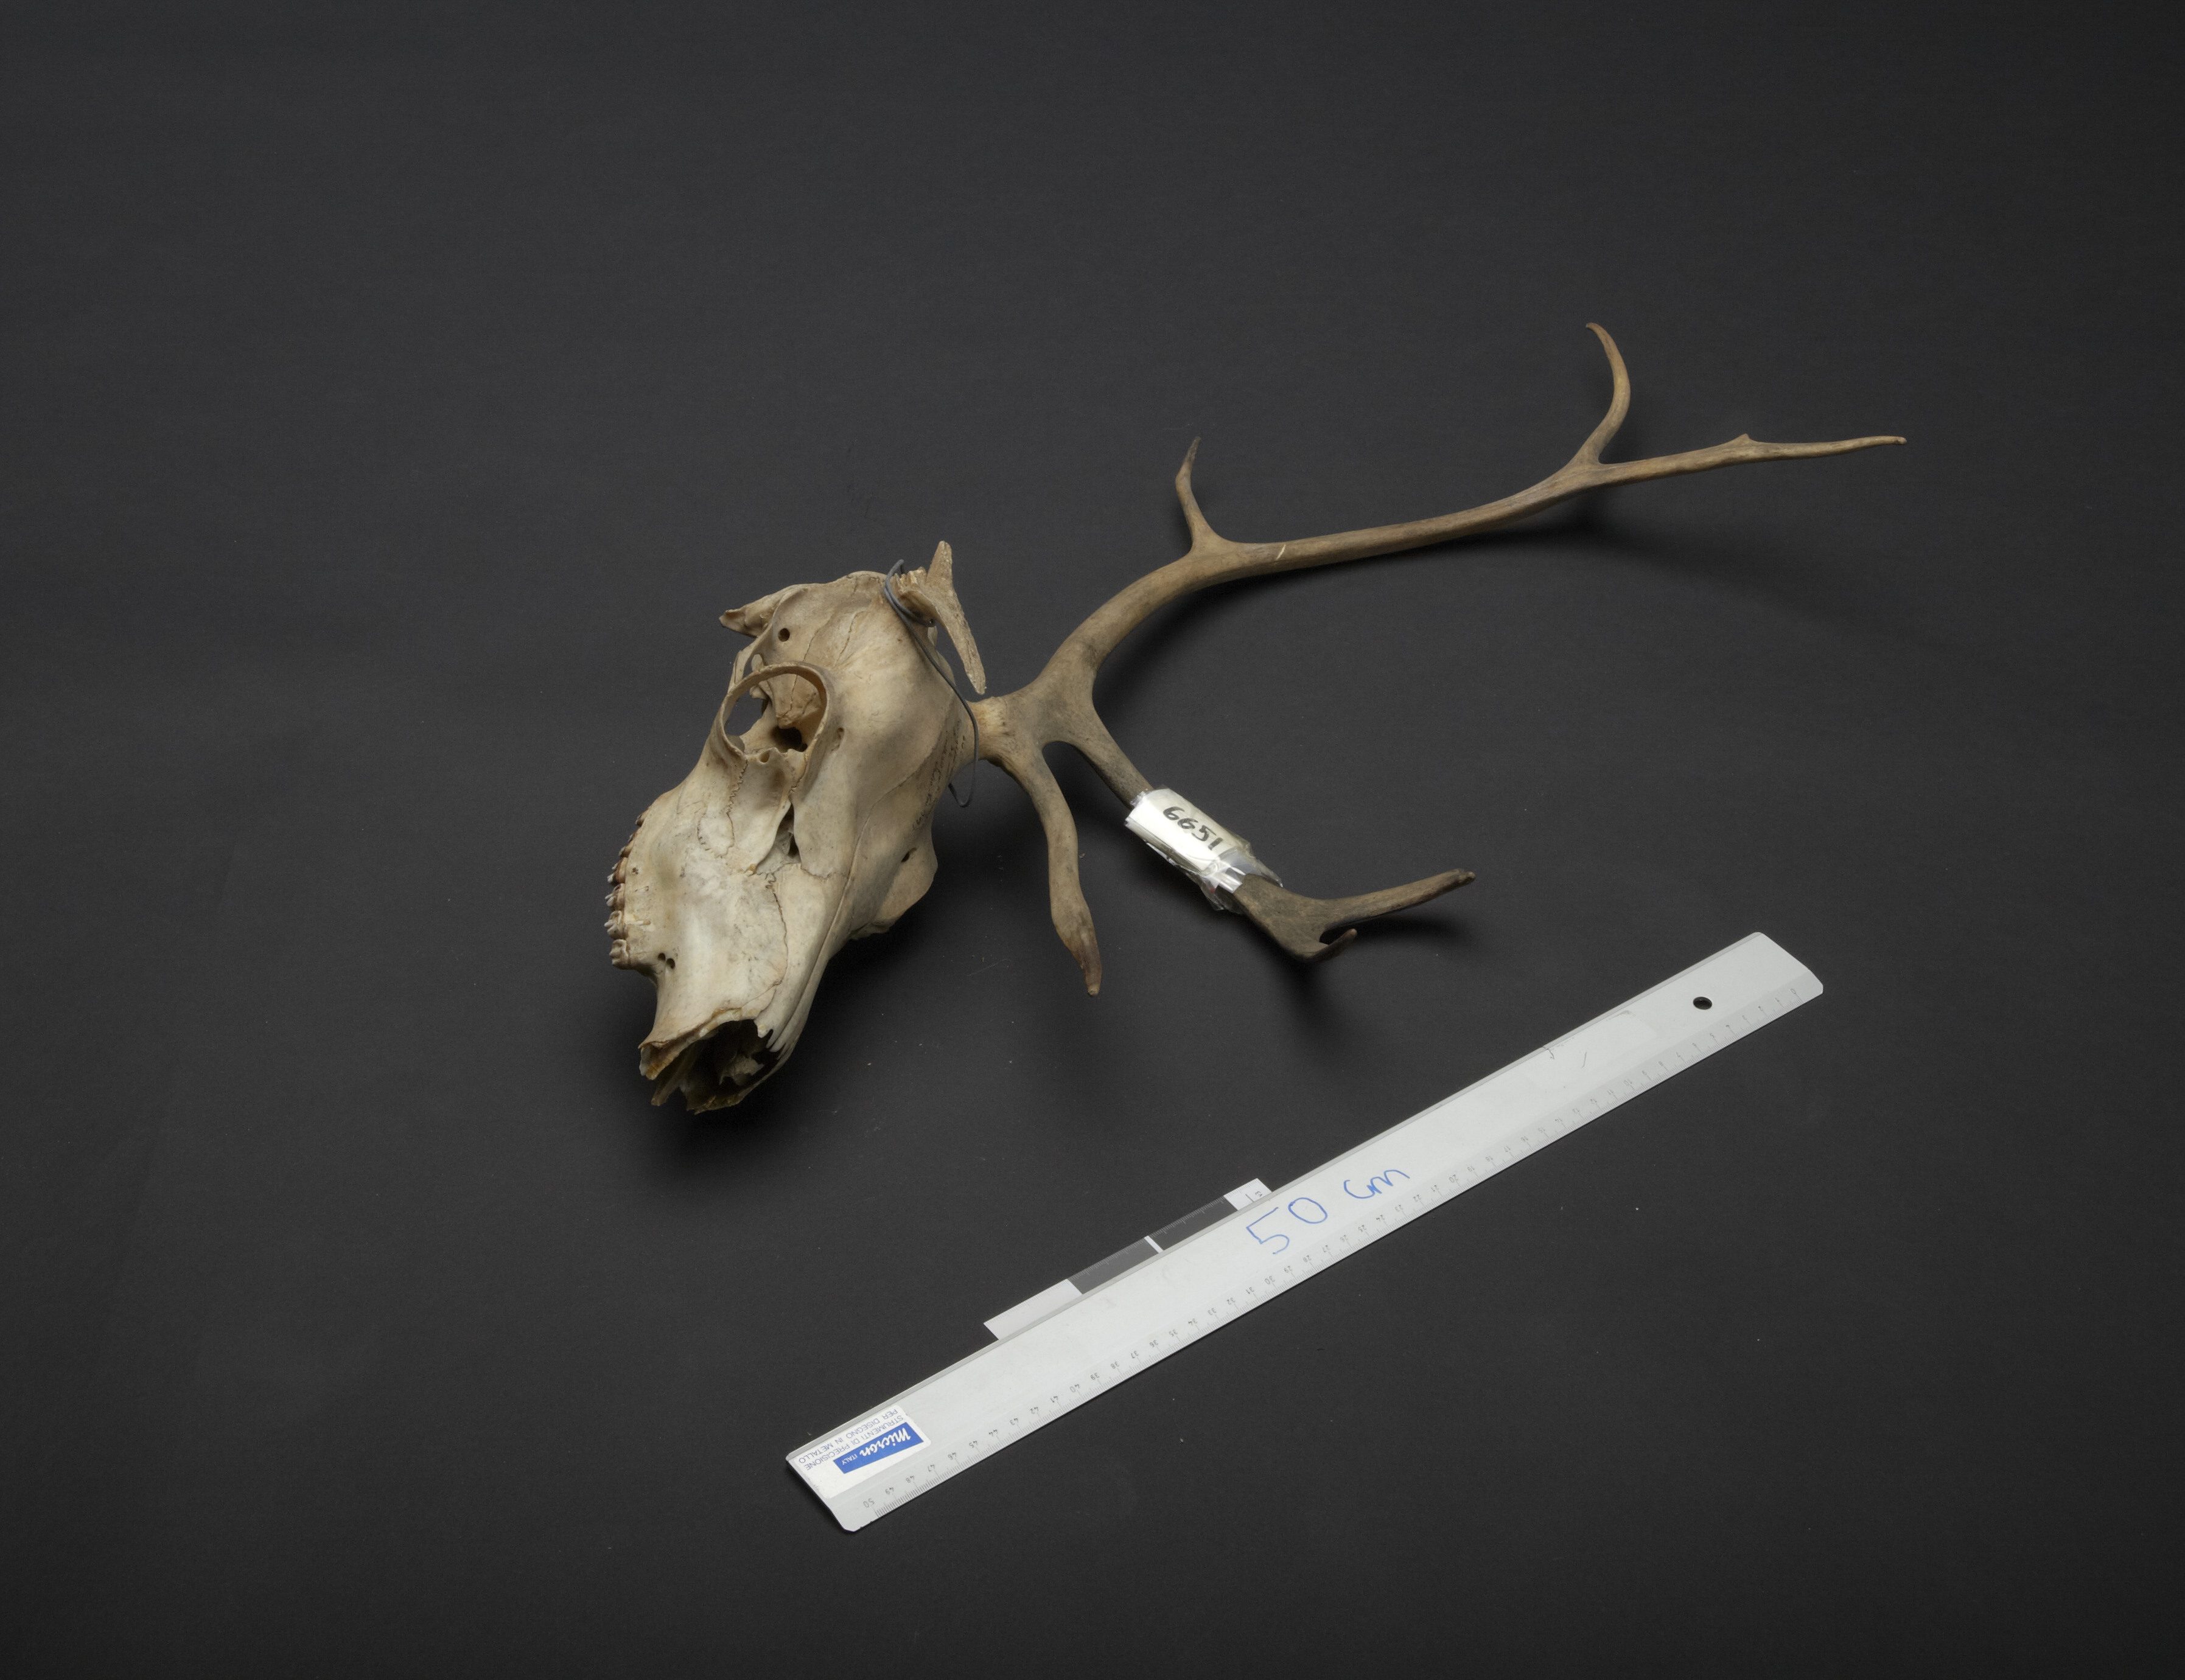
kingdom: Animalia
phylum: Chordata
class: Mammalia
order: Artiodactyla
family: Cervidae
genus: Rangifer
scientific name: Rangifer tarandus
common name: Reindeer
